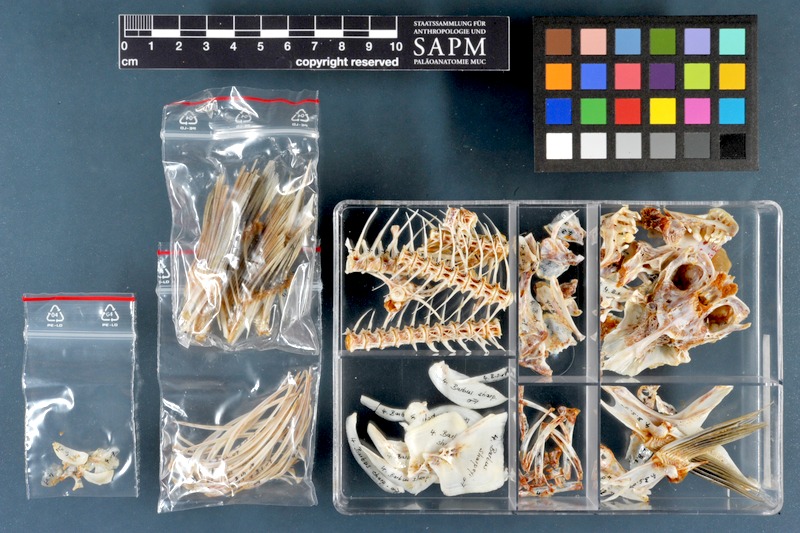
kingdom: Animalia
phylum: Chordata
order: Cypriniformes
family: Cyprinidae
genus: Mesopotamichthys
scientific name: Mesopotamichthys sharpeyi
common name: Binni
